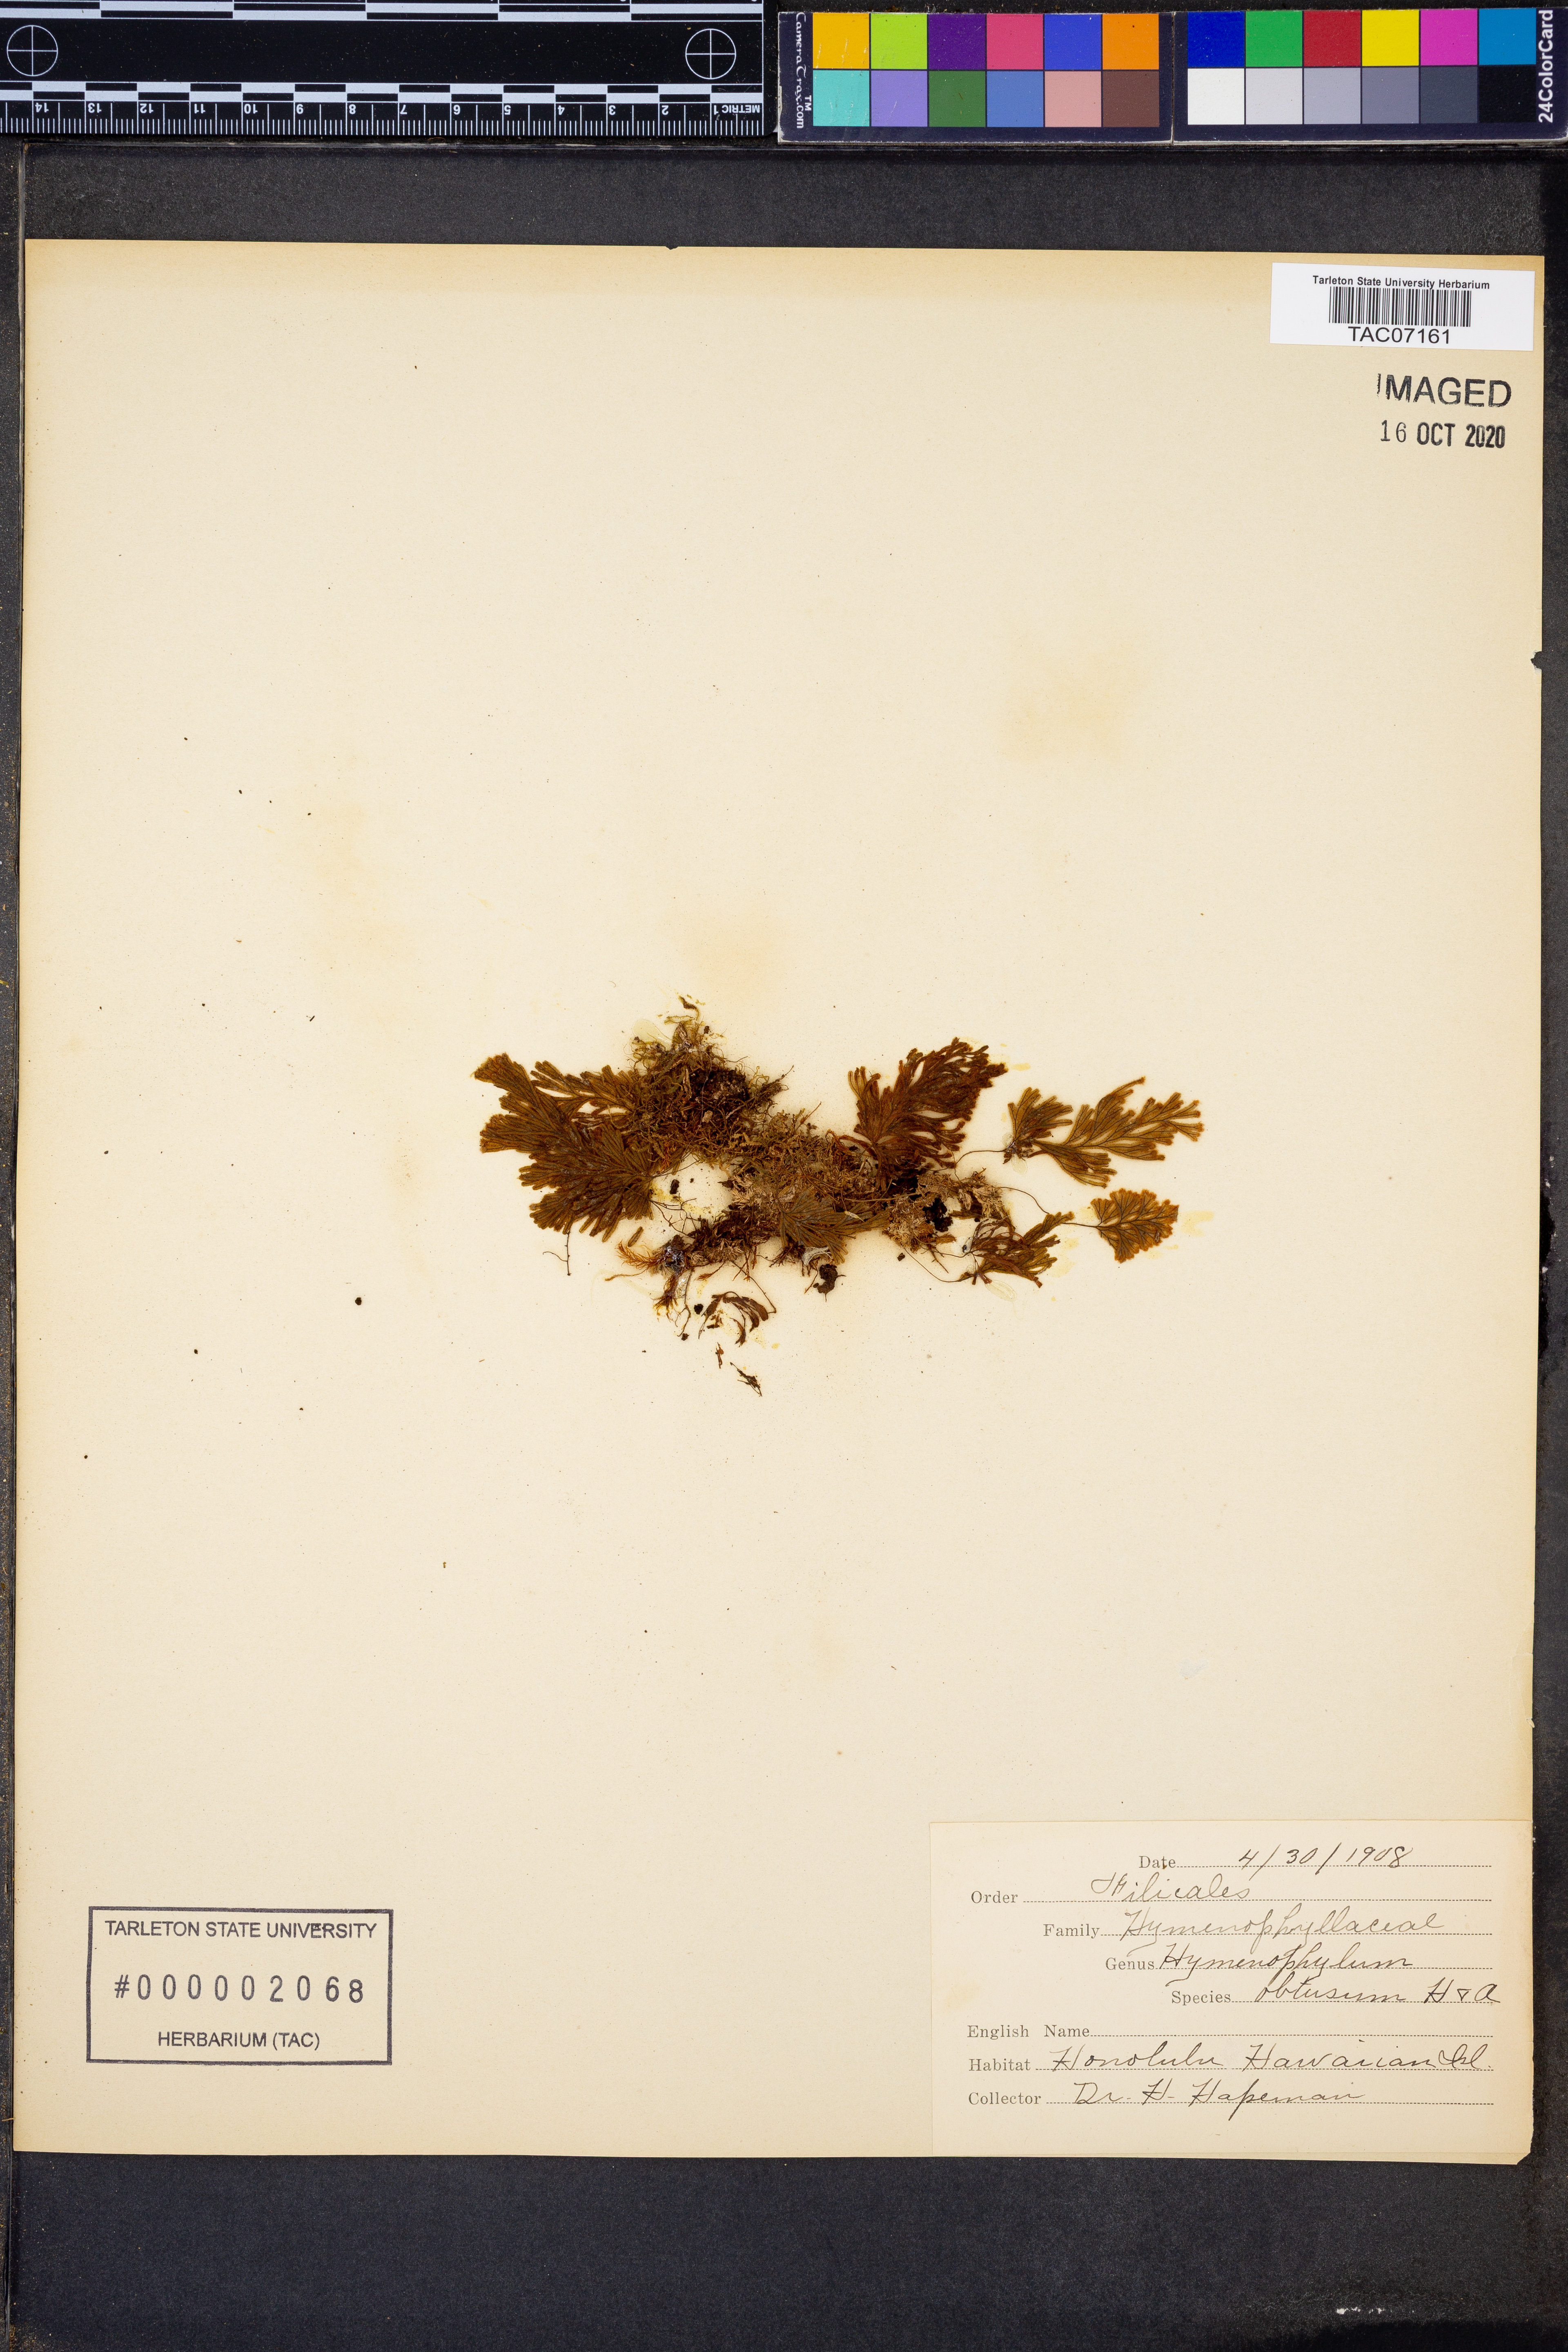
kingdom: Plantae
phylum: Tracheophyta
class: Polypodiopsida
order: Hymenophyllales
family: Hymenophyllaceae
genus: Hymenophyllum
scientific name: Hymenophyllum obtusum
